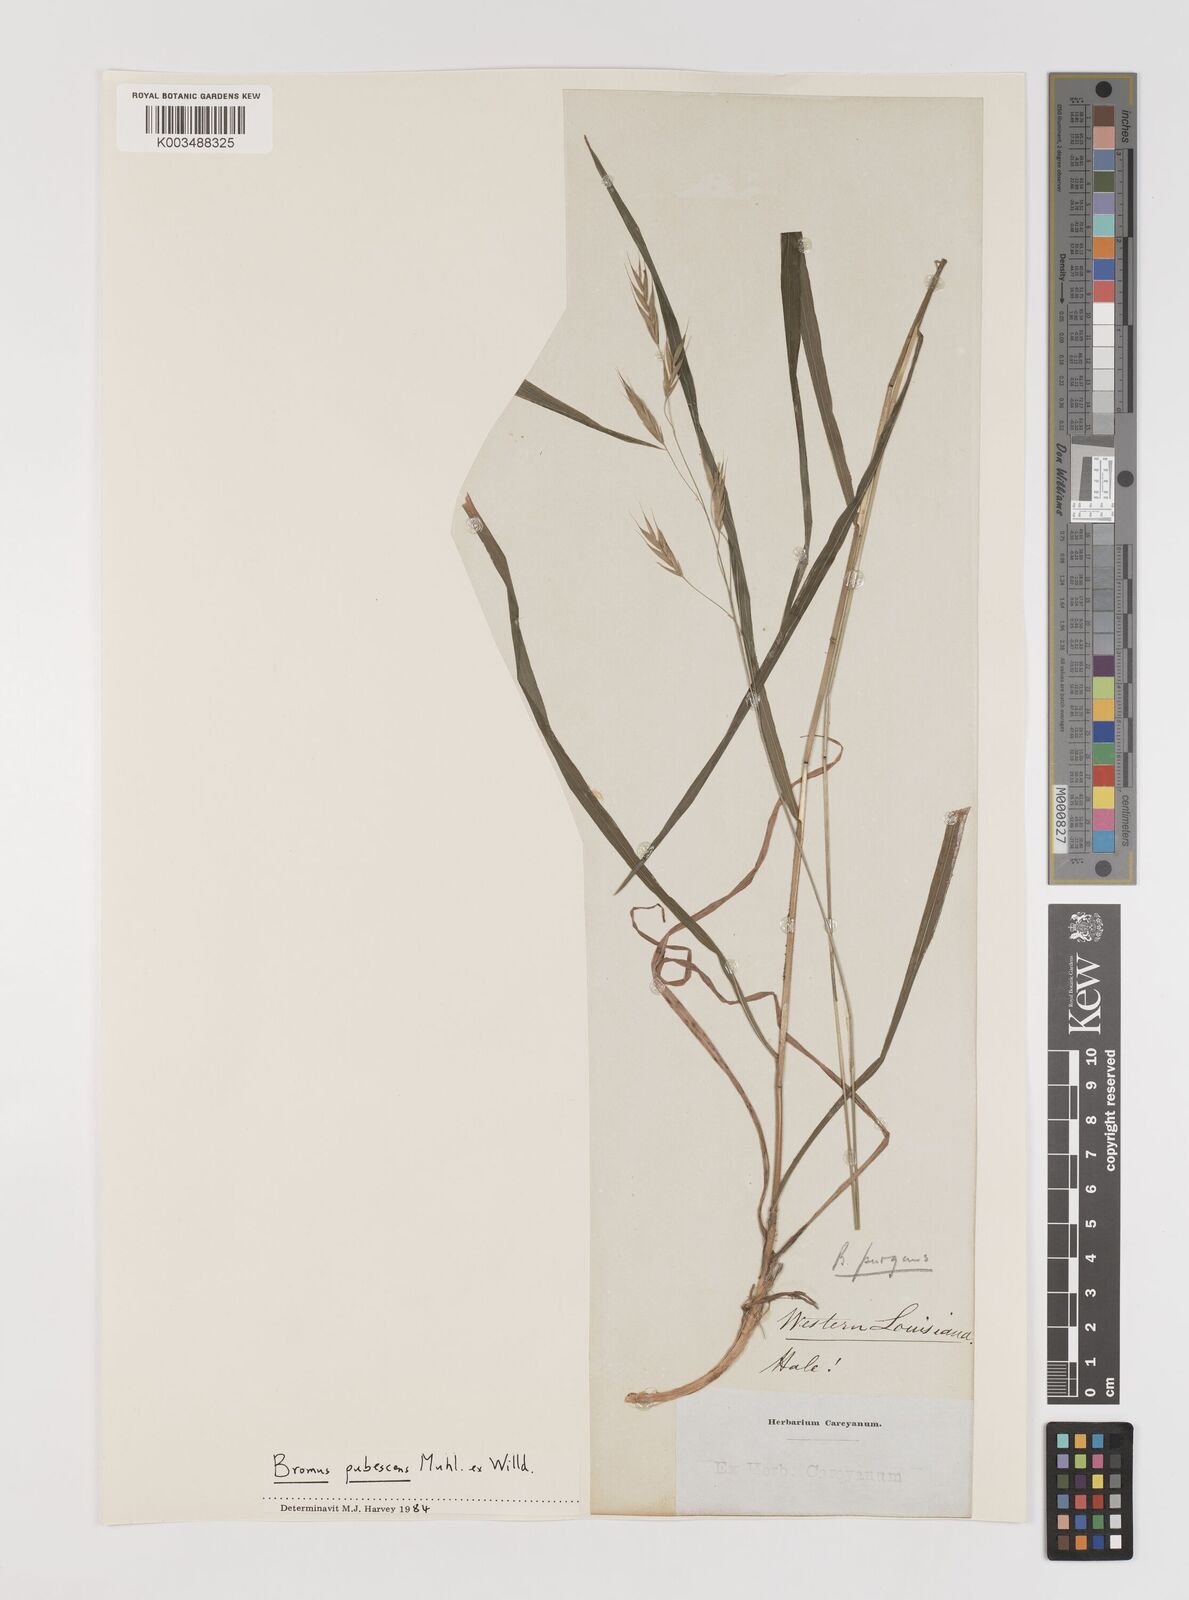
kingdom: Plantae
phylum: Tracheophyta
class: Liliopsida
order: Poales
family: Poaceae
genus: Bromus
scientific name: Bromus pubescens
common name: Hairy wood brome grass
